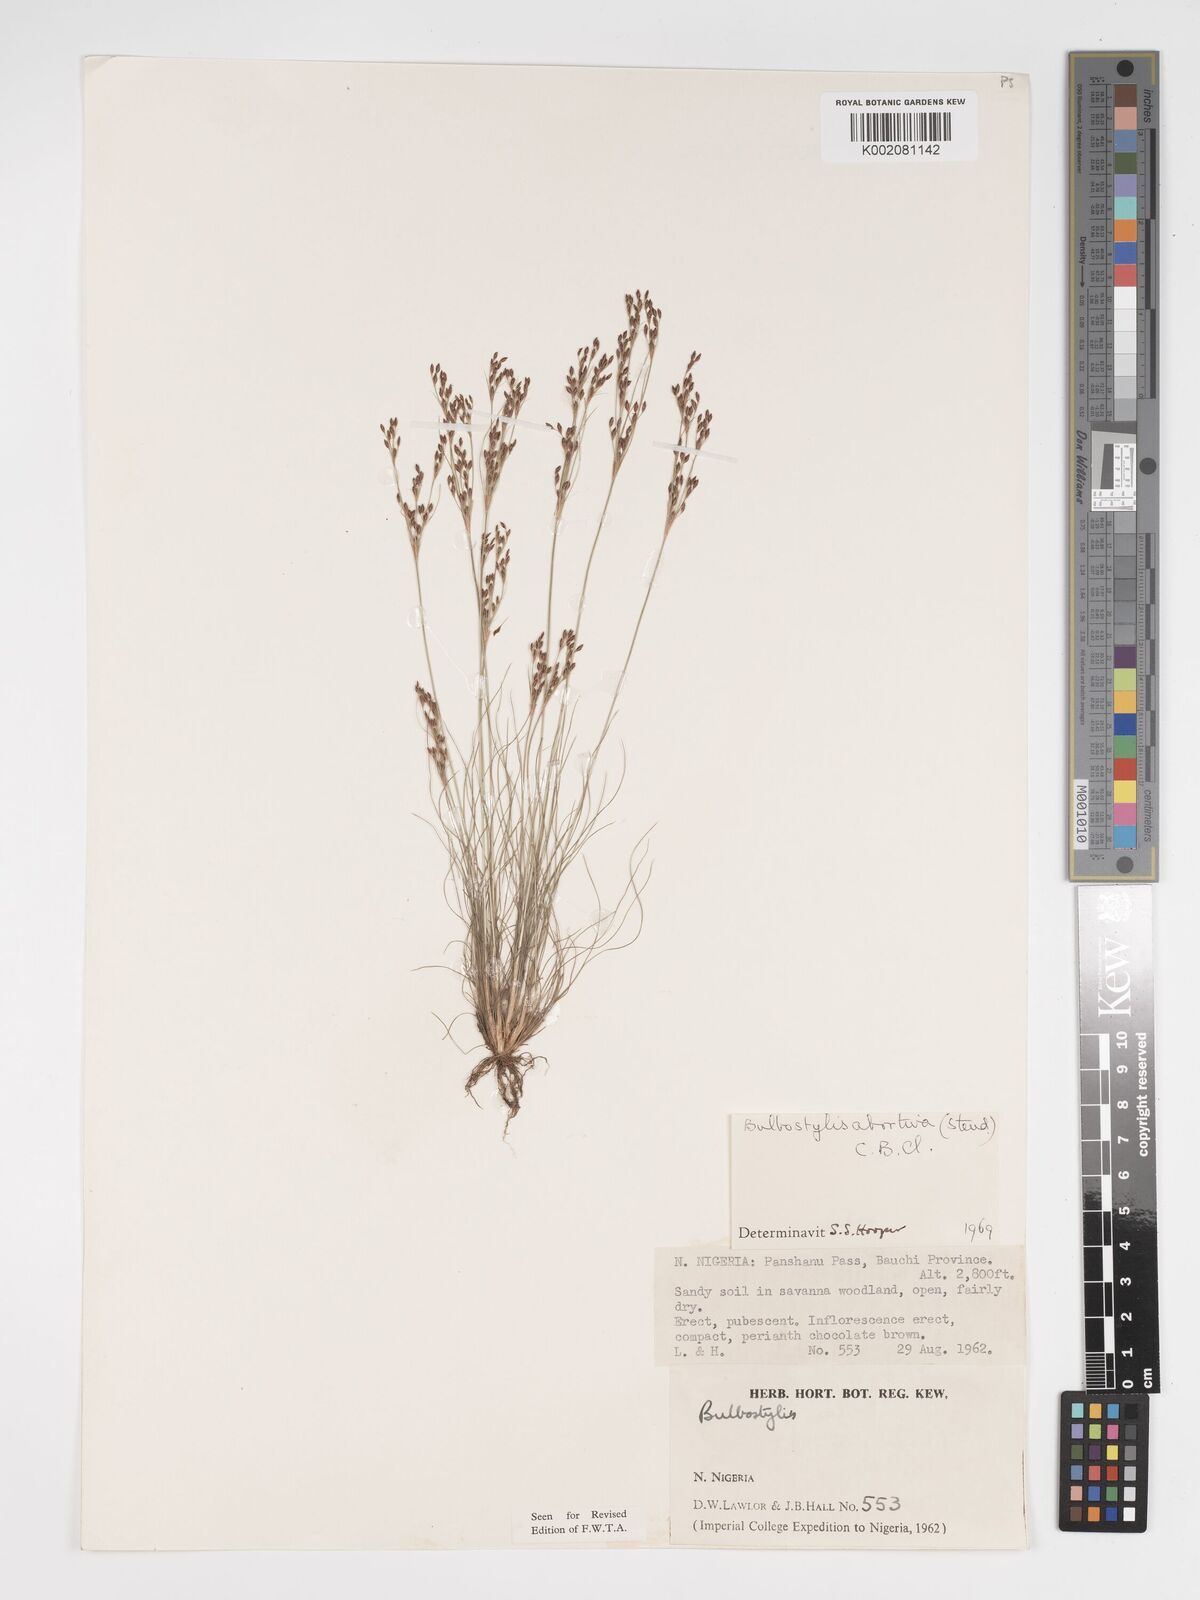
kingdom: Plantae
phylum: Tracheophyta
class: Liliopsida
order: Poales
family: Cyperaceae
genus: Bulbostylis
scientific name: Bulbostylis abortiva
